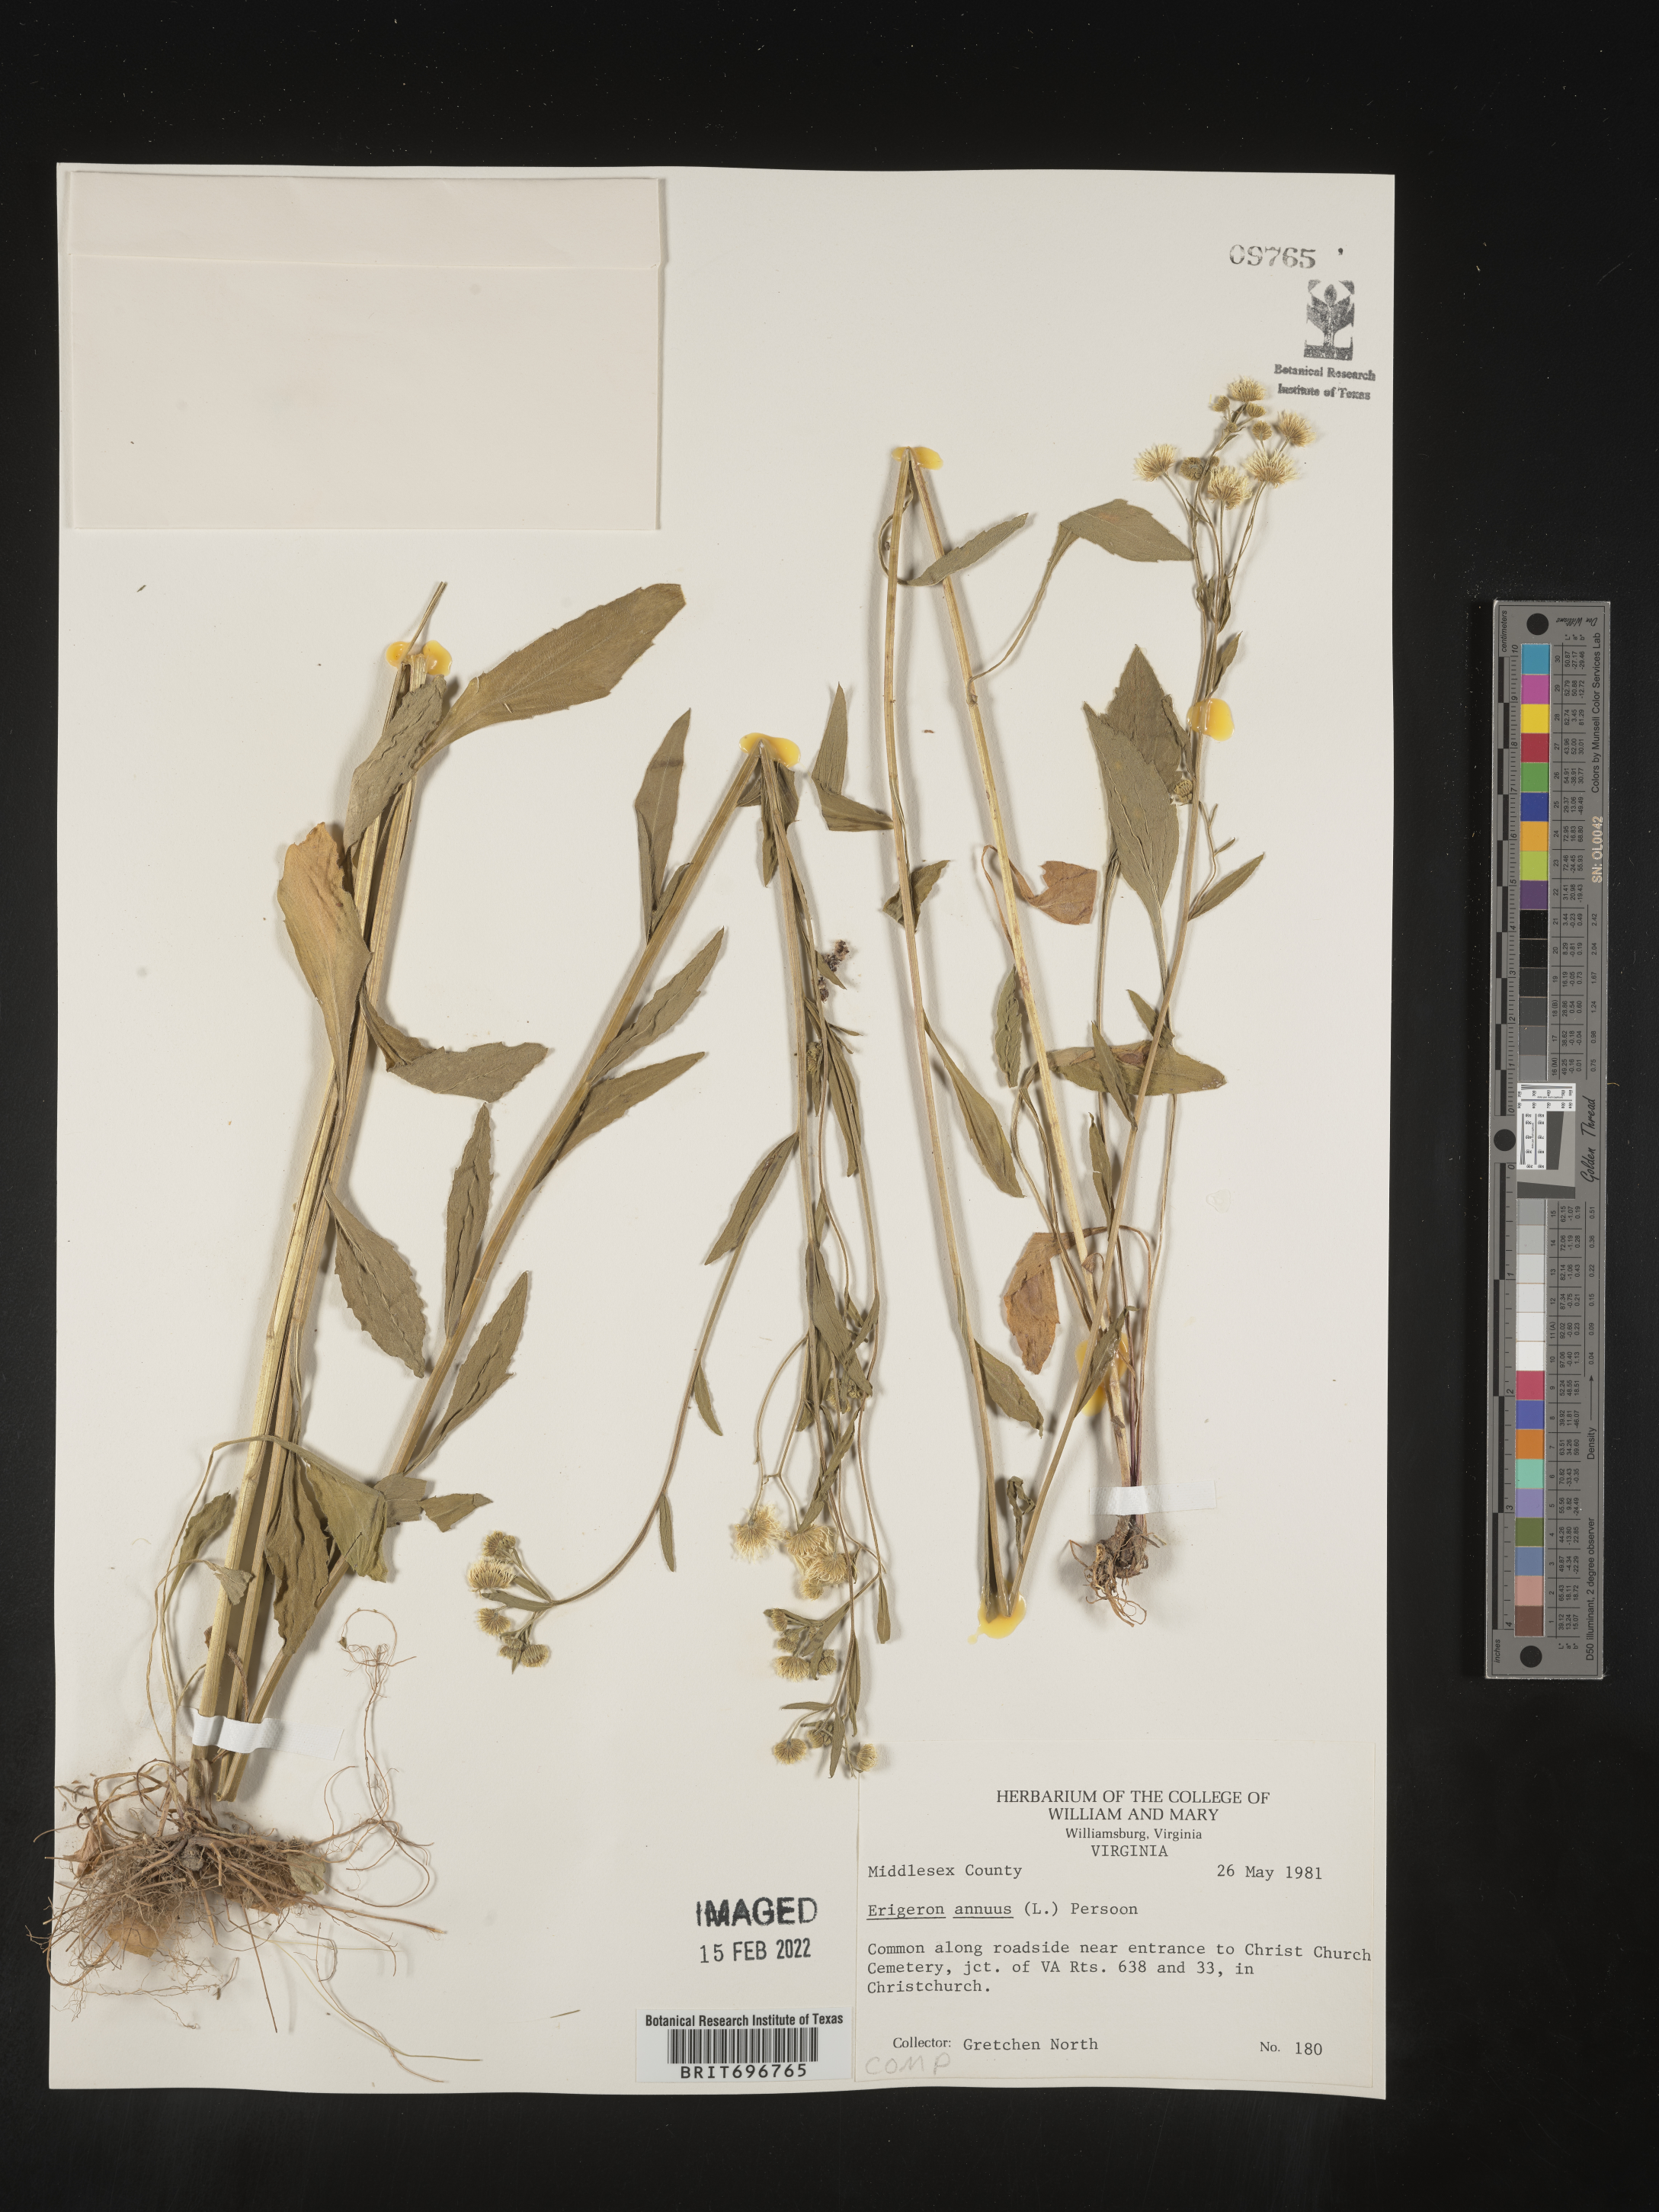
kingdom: Plantae
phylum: Tracheophyta
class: Magnoliopsida
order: Asterales
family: Asteraceae
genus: Erigeron
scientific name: Erigeron annuus
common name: Tall fleabane
